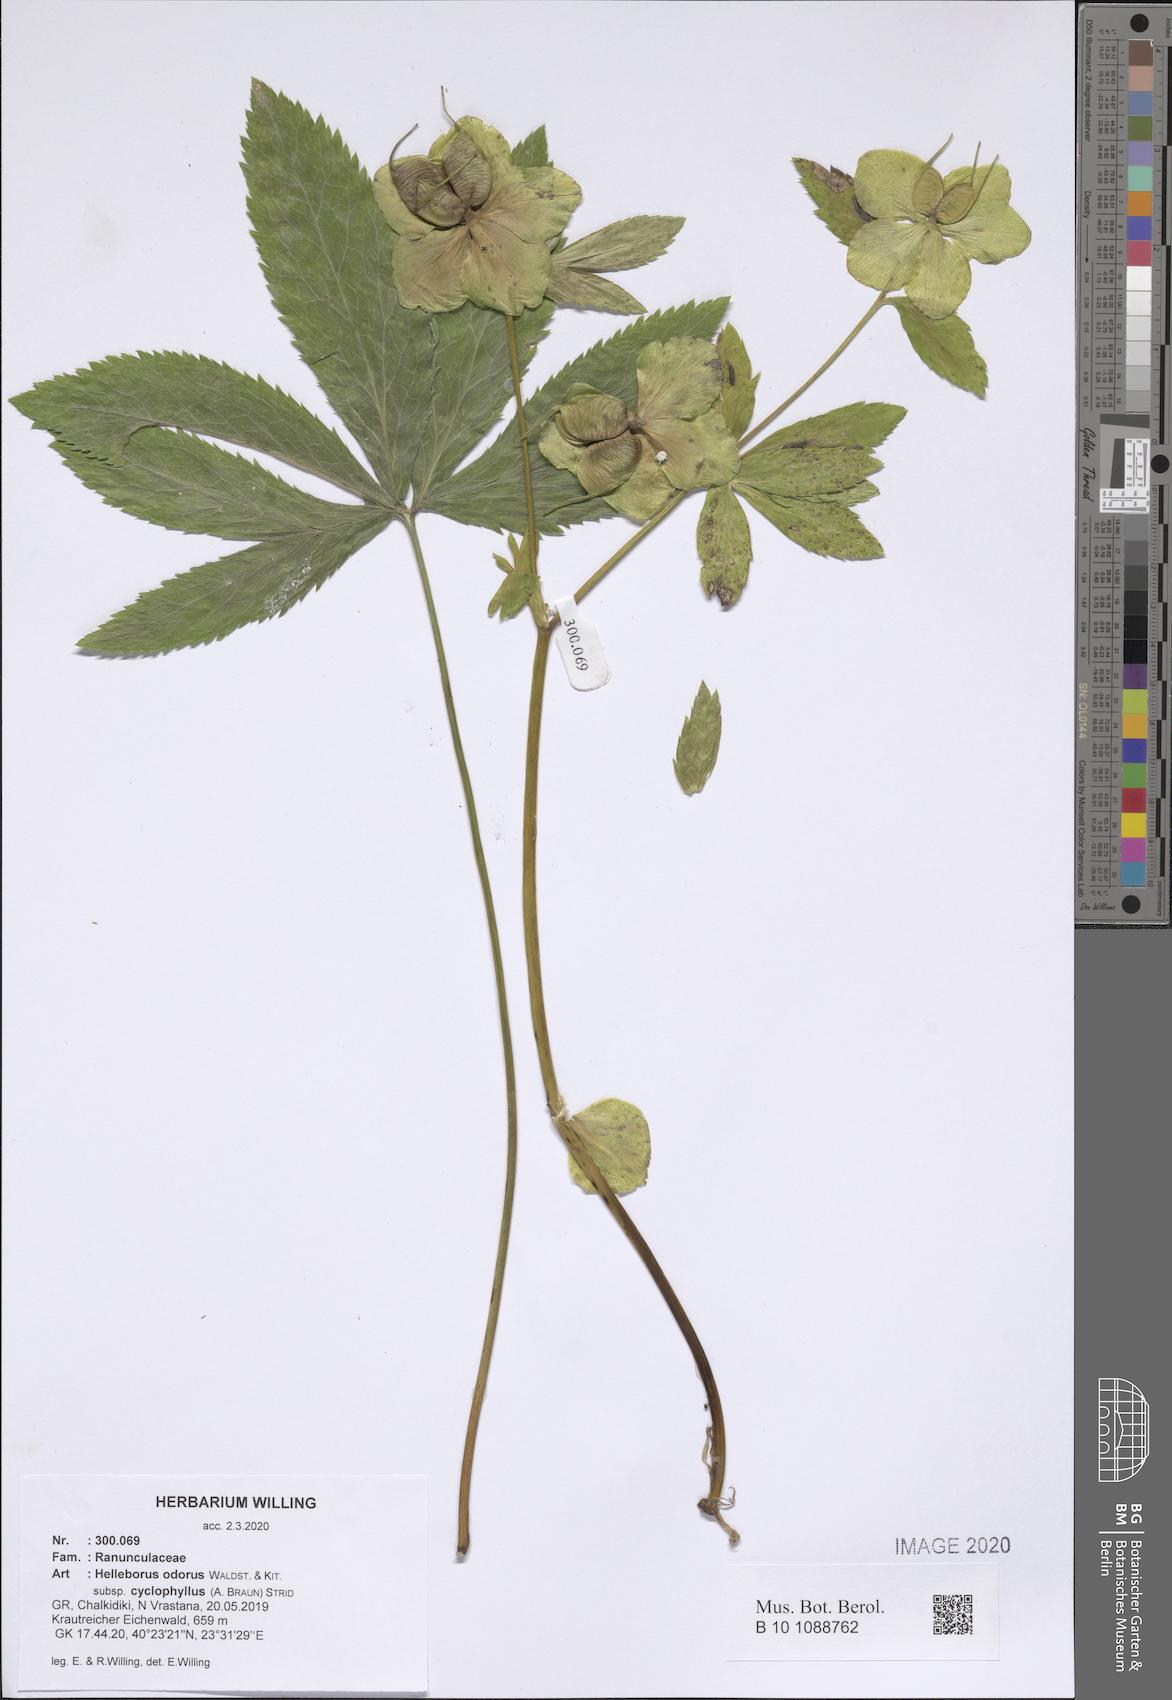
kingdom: Plantae
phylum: Tracheophyta
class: Magnoliopsida
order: Ranunculales
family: Ranunculaceae
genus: Helleborus
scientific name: Helleborus odorus
